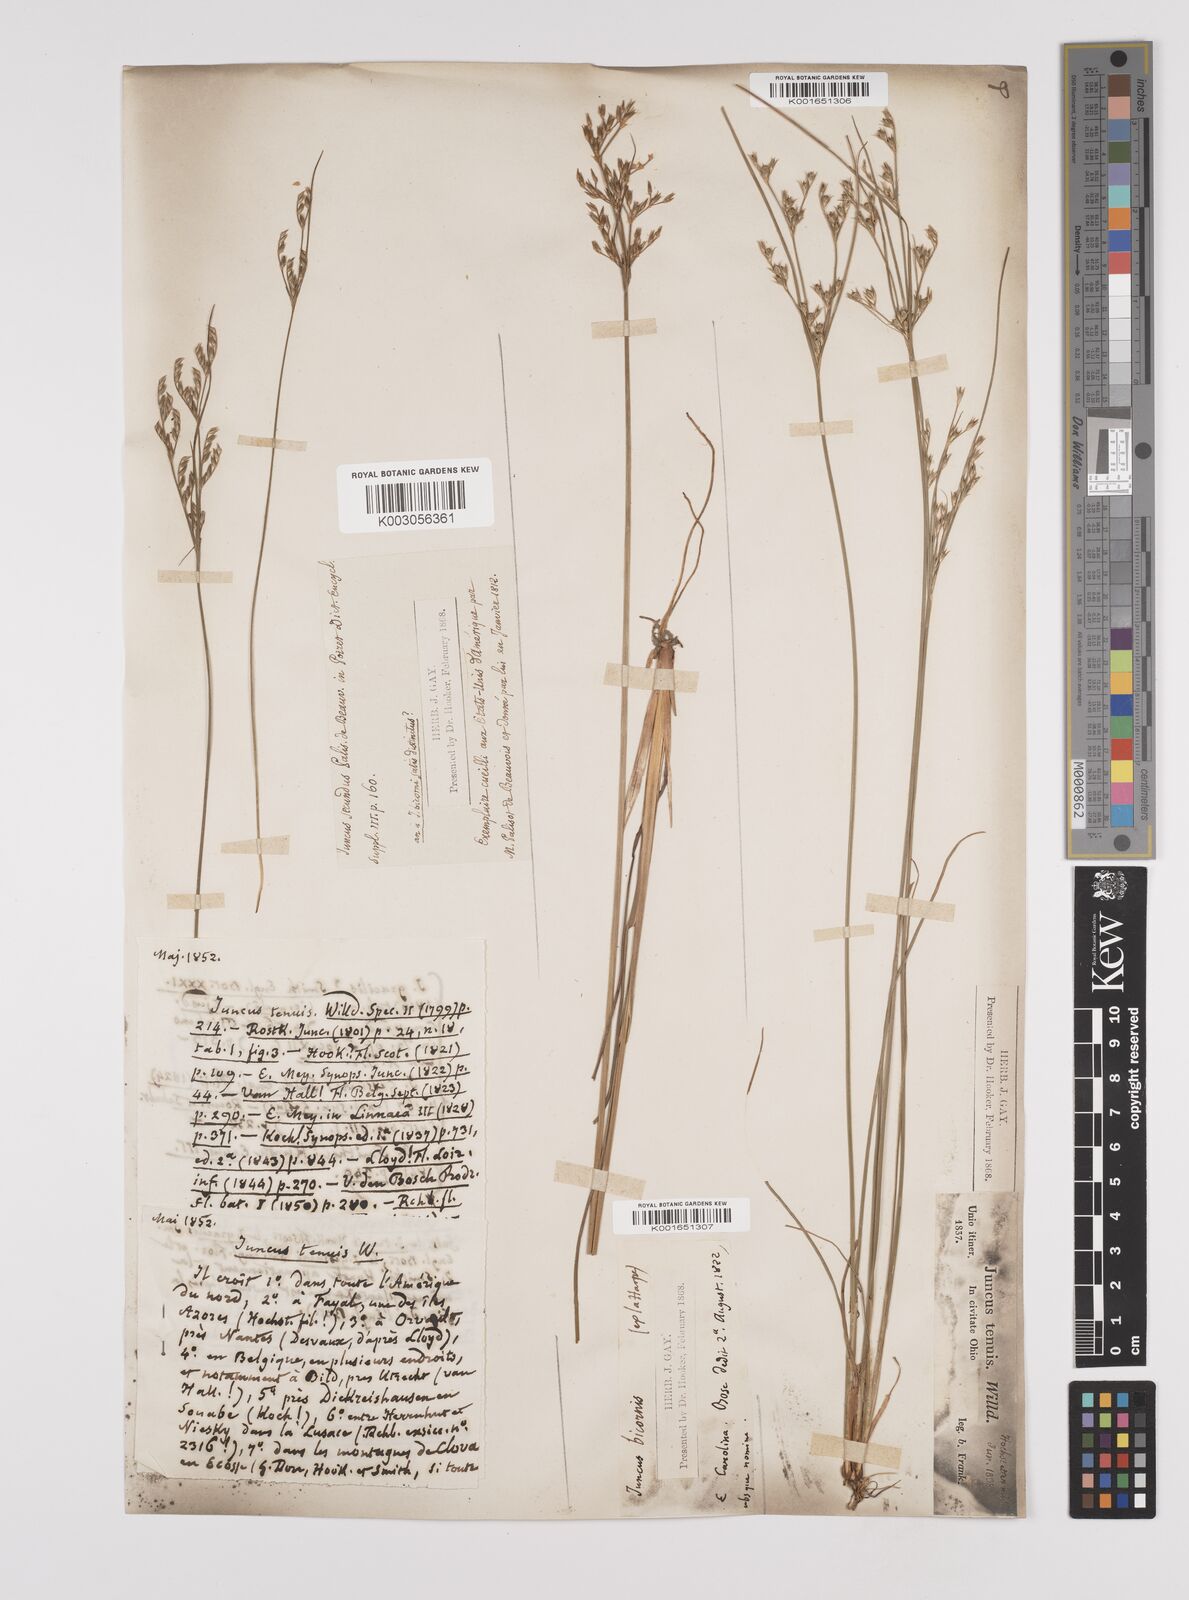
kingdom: Plantae
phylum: Tracheophyta
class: Liliopsida
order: Poales
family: Juncaceae
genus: Juncus
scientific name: Juncus tenuis
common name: Slender rush
